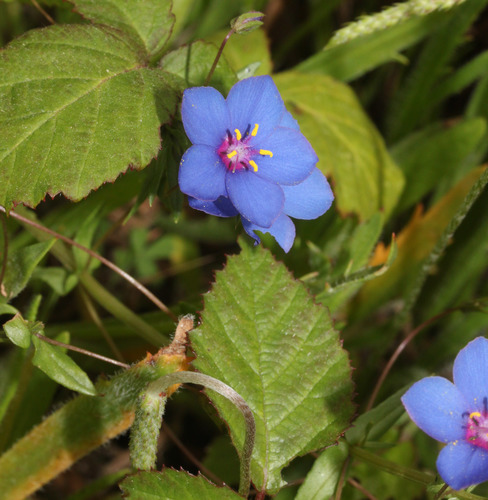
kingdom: Plantae
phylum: Tracheophyta
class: Magnoliopsida
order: Ericales
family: Primulaceae
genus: Lysimachia
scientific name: Lysimachia monelli
